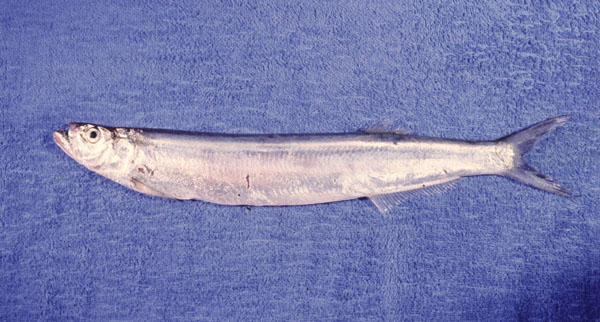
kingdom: Animalia
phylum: Chordata
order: Clupeiformes
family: Chirocentridae
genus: Chirocentrus
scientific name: Chirocentrus nudus
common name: Whitefin wolf-herring
